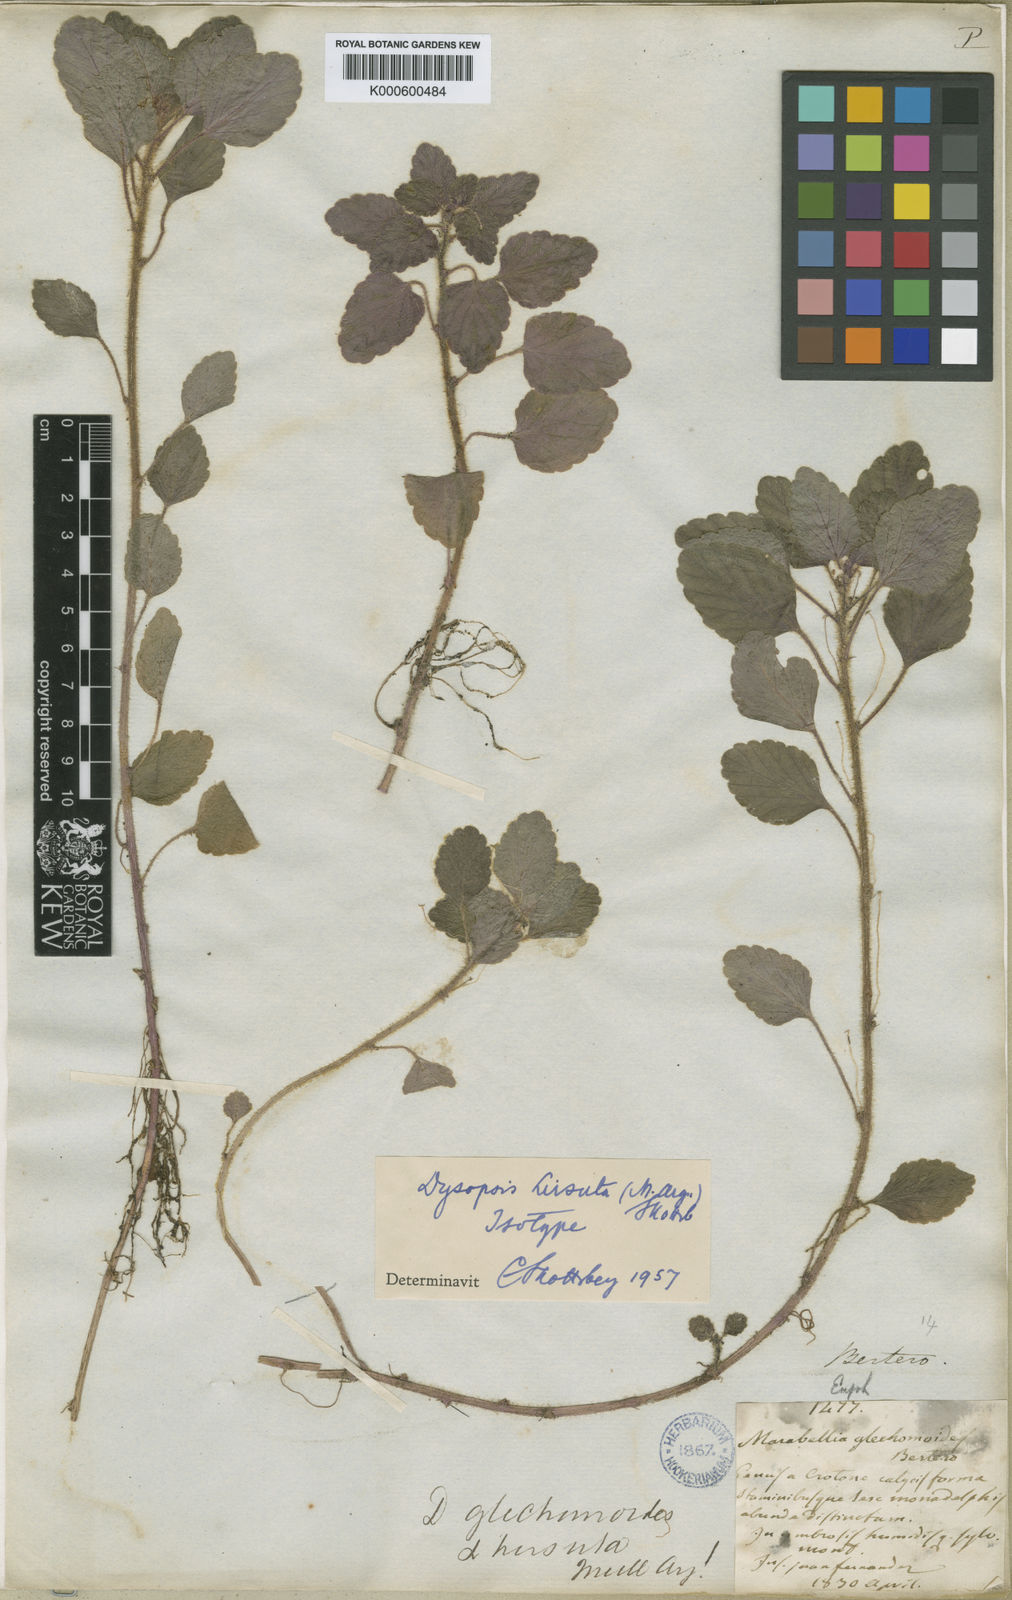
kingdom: Plantae
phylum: Tracheophyta
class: Magnoliopsida
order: Malpighiales
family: Euphorbiaceae
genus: Dysopsis
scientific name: Dysopsis
